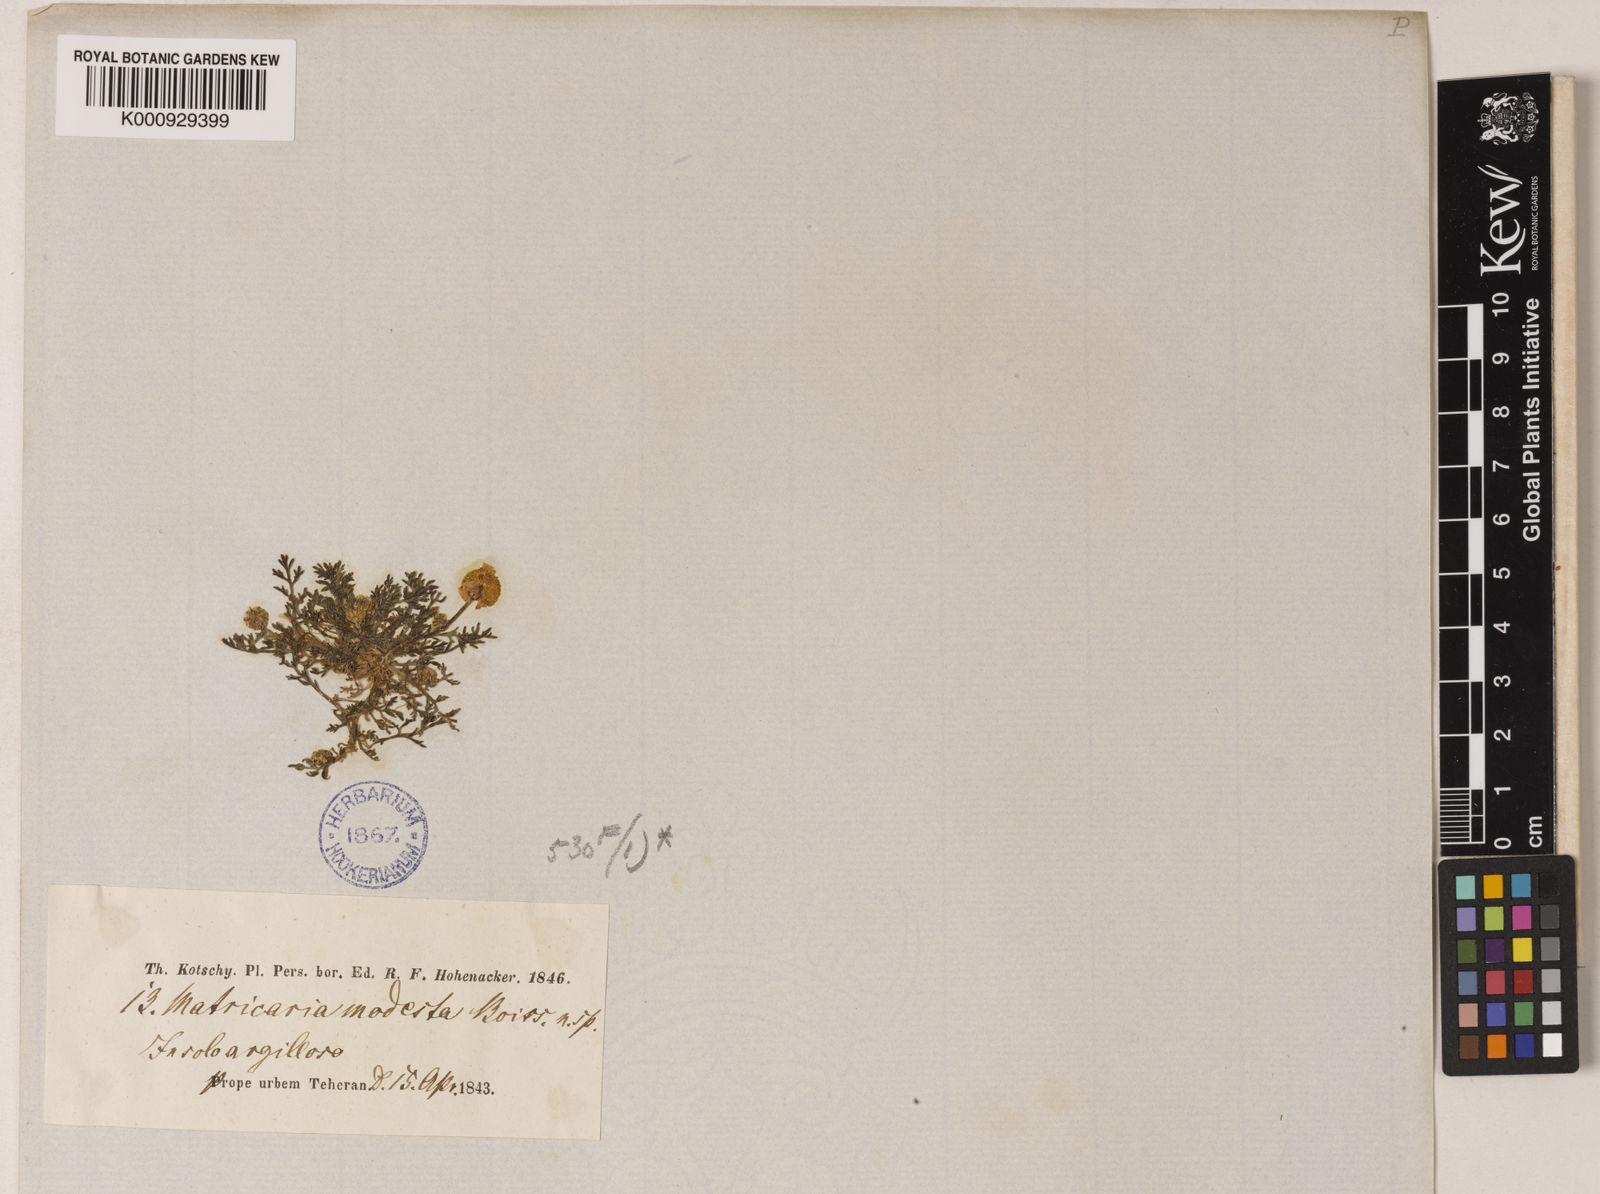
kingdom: Plantae
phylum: Tracheophyta
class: Magnoliopsida
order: Asterales
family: Asteraceae
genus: Tripleurospermum
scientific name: Tripleurospermum parviflorum
